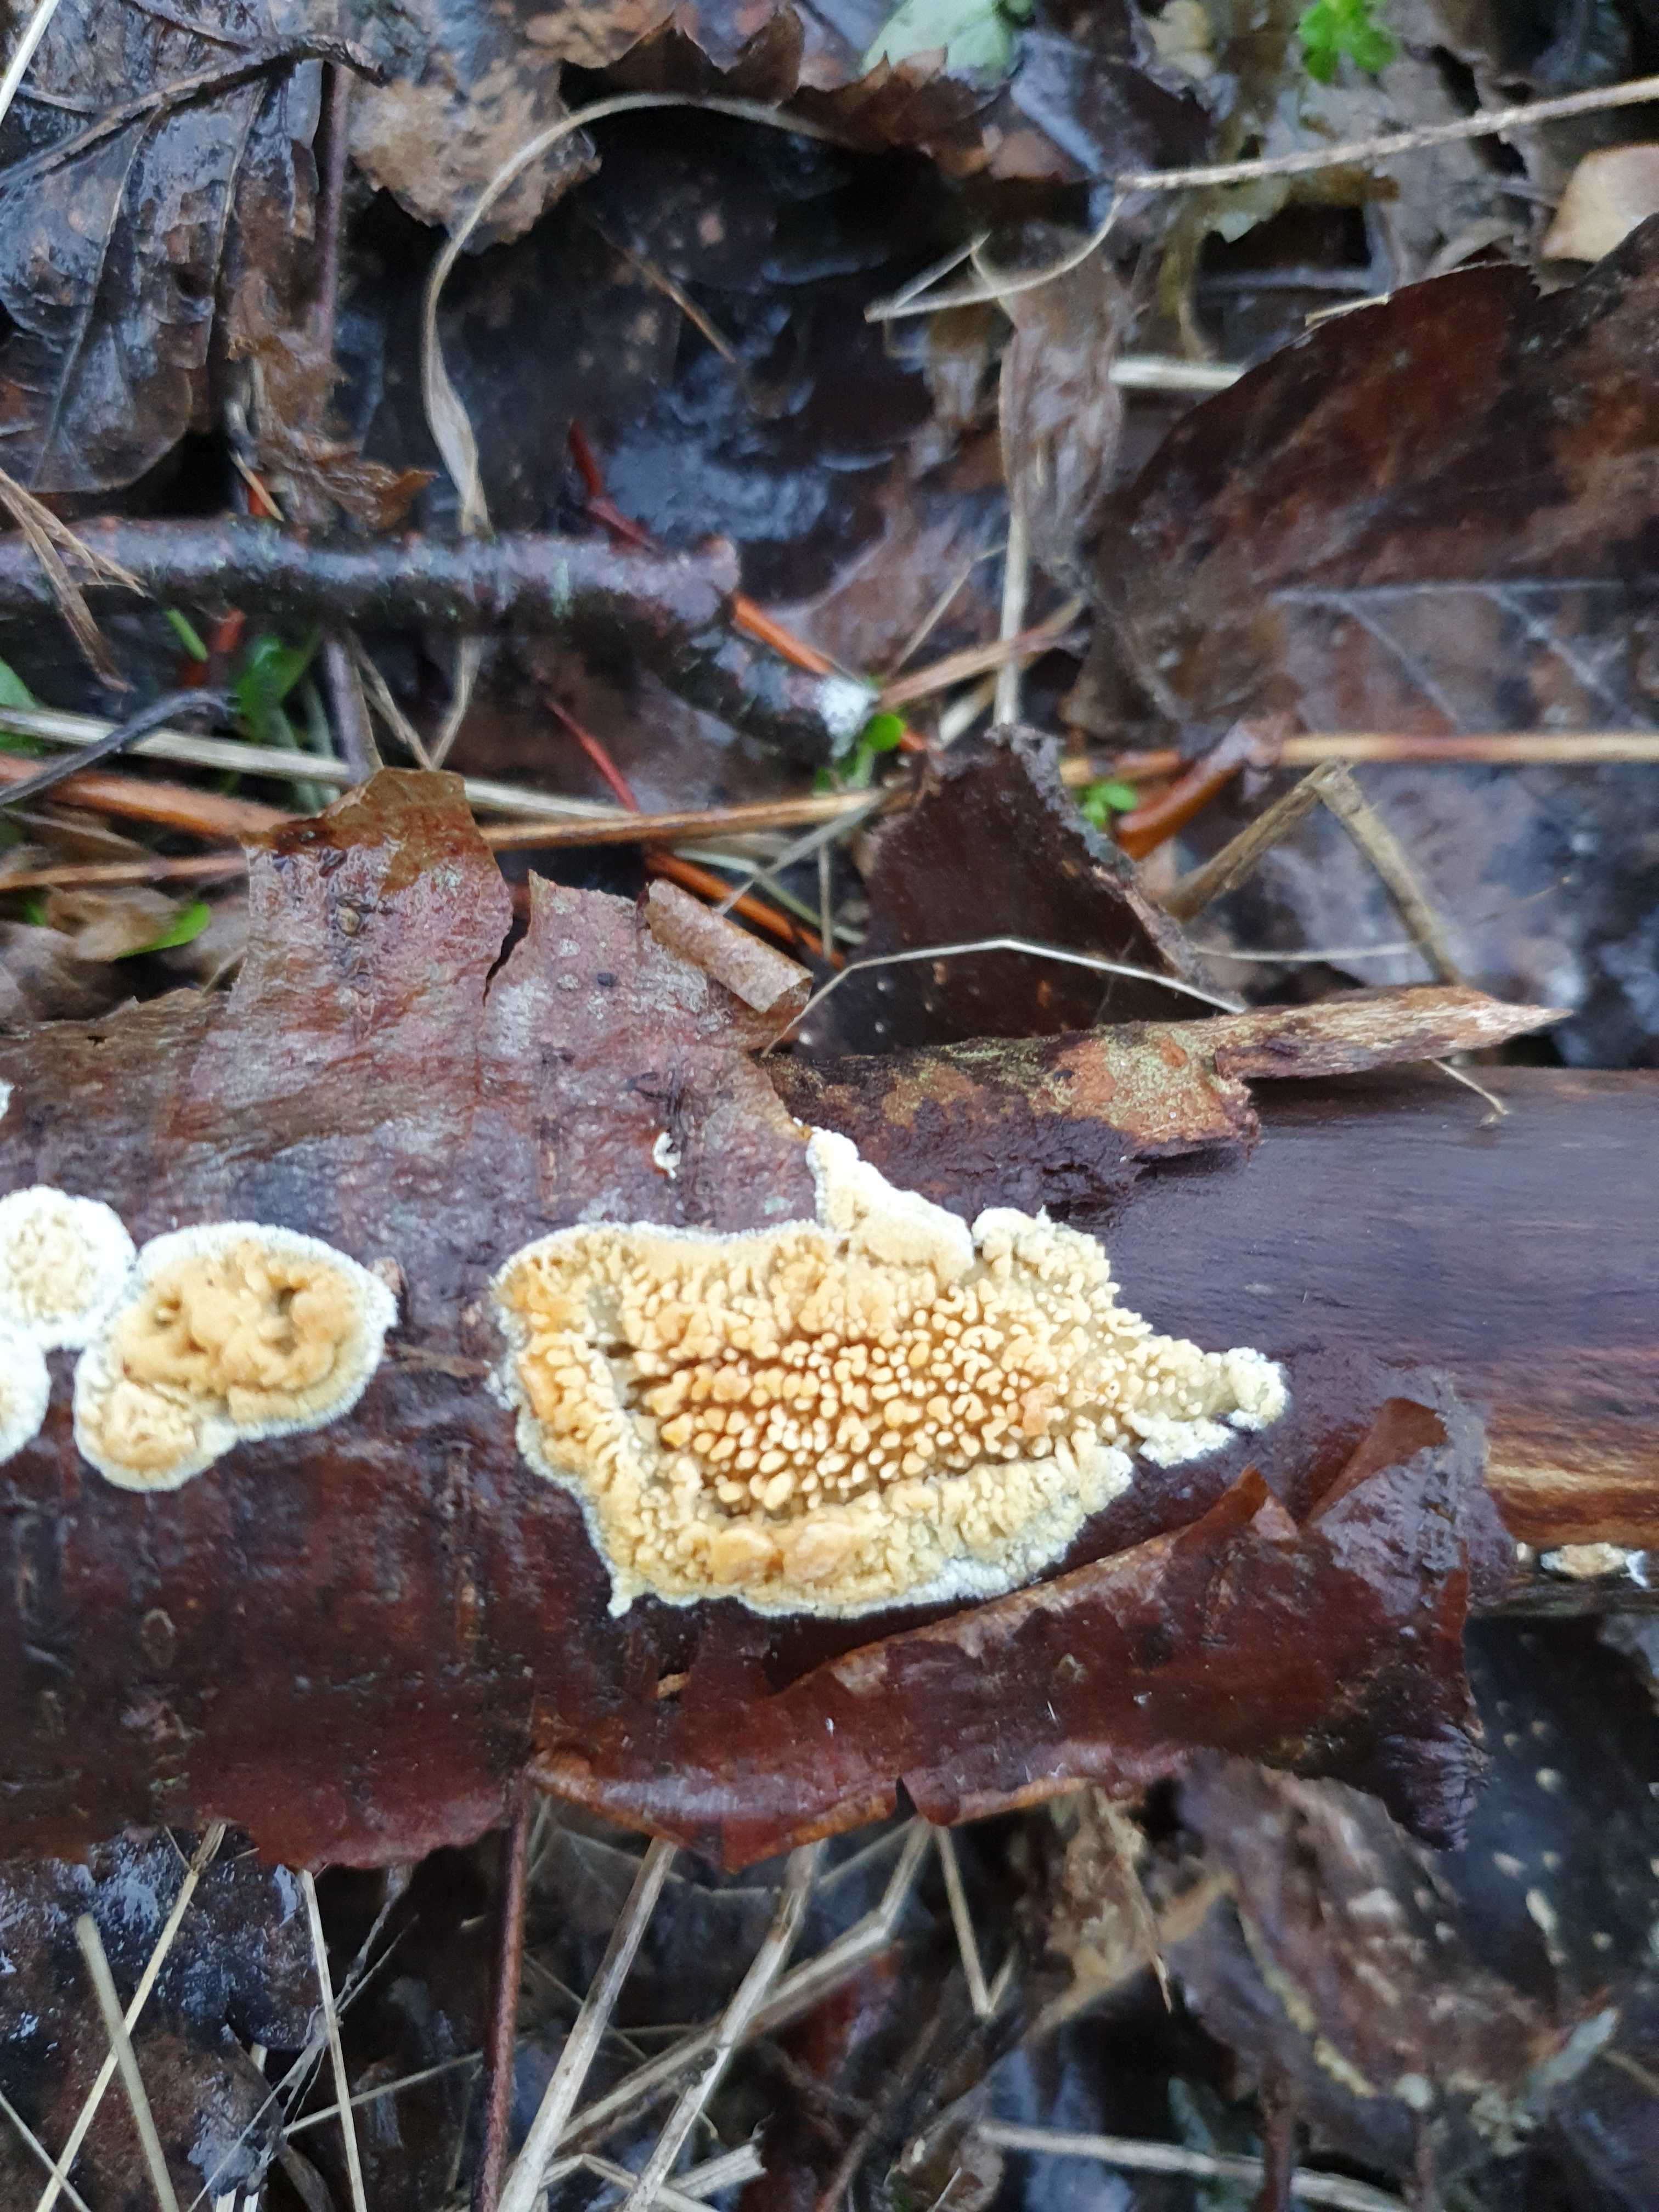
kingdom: Fungi
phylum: Basidiomycota
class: Agaricomycetes
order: Hymenochaetales
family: Schizoporaceae
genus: Xylodon
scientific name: Xylodon radula
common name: grovtandet kalkskind
